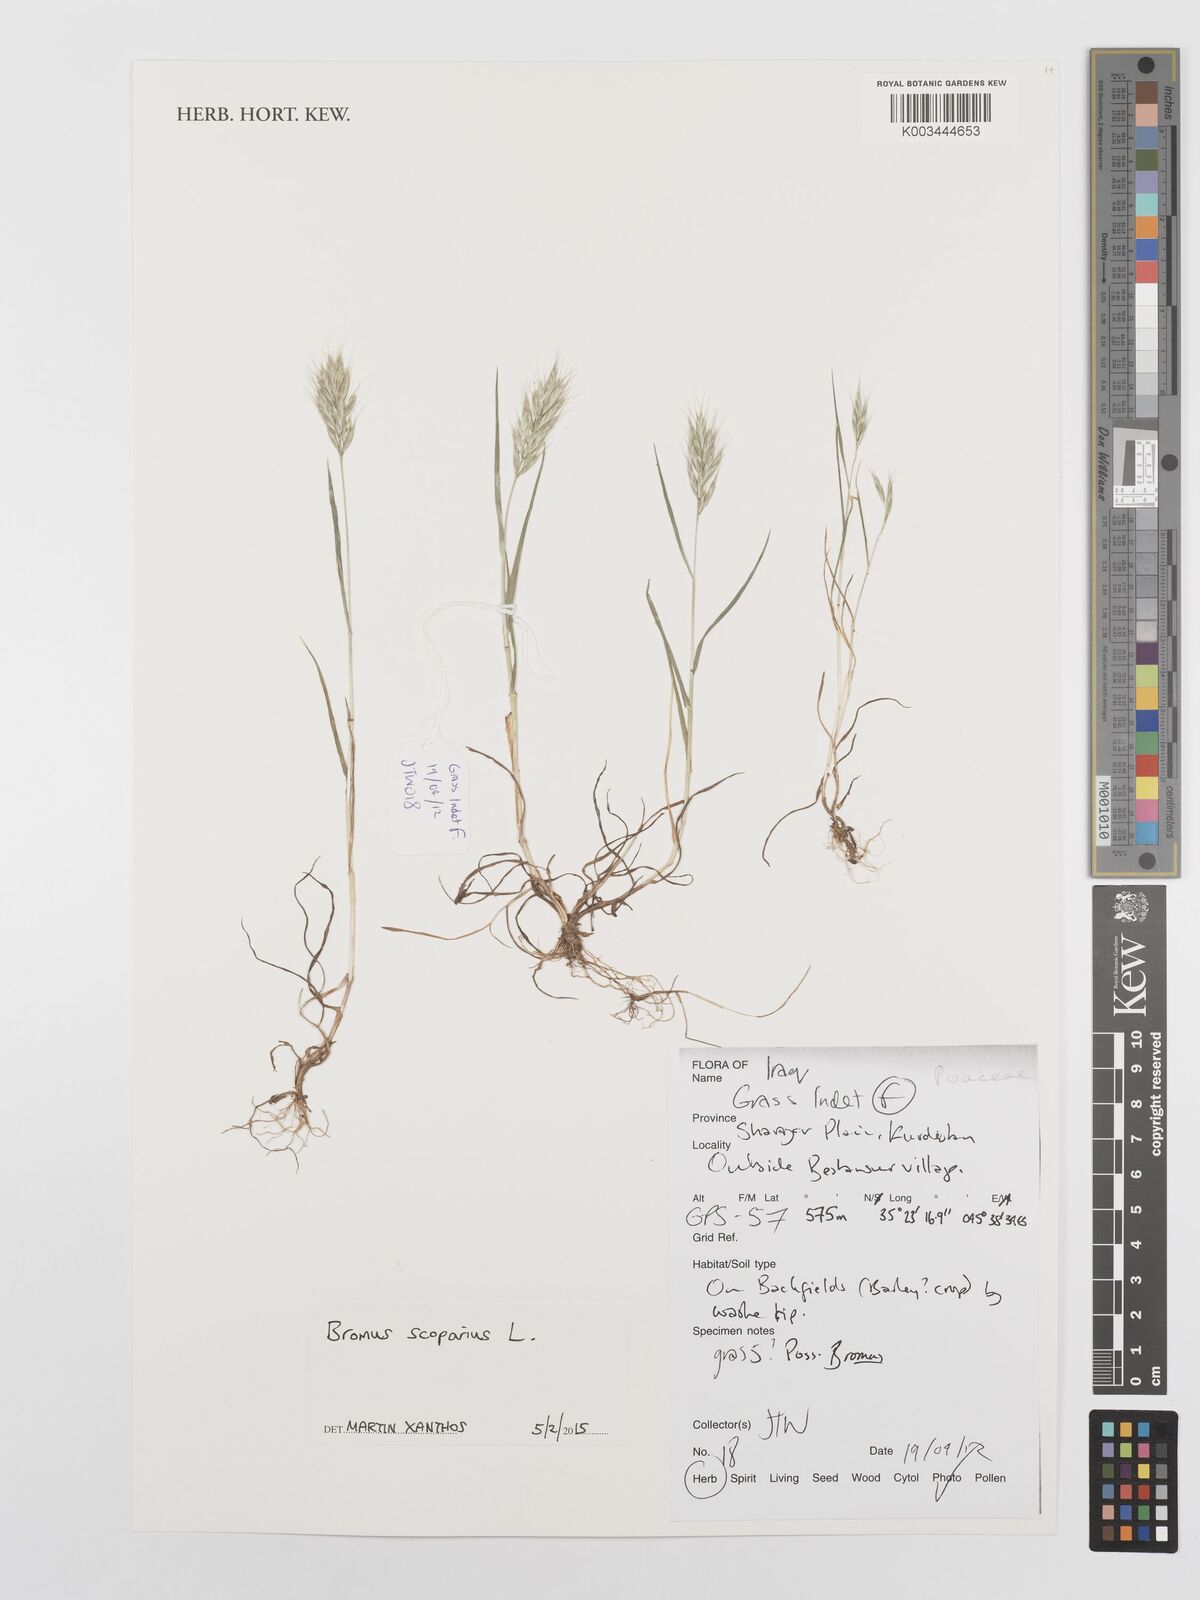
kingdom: Plantae
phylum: Tracheophyta
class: Liliopsida
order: Poales
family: Poaceae
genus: Bromus
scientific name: Bromus scoparius
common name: Broom brome
